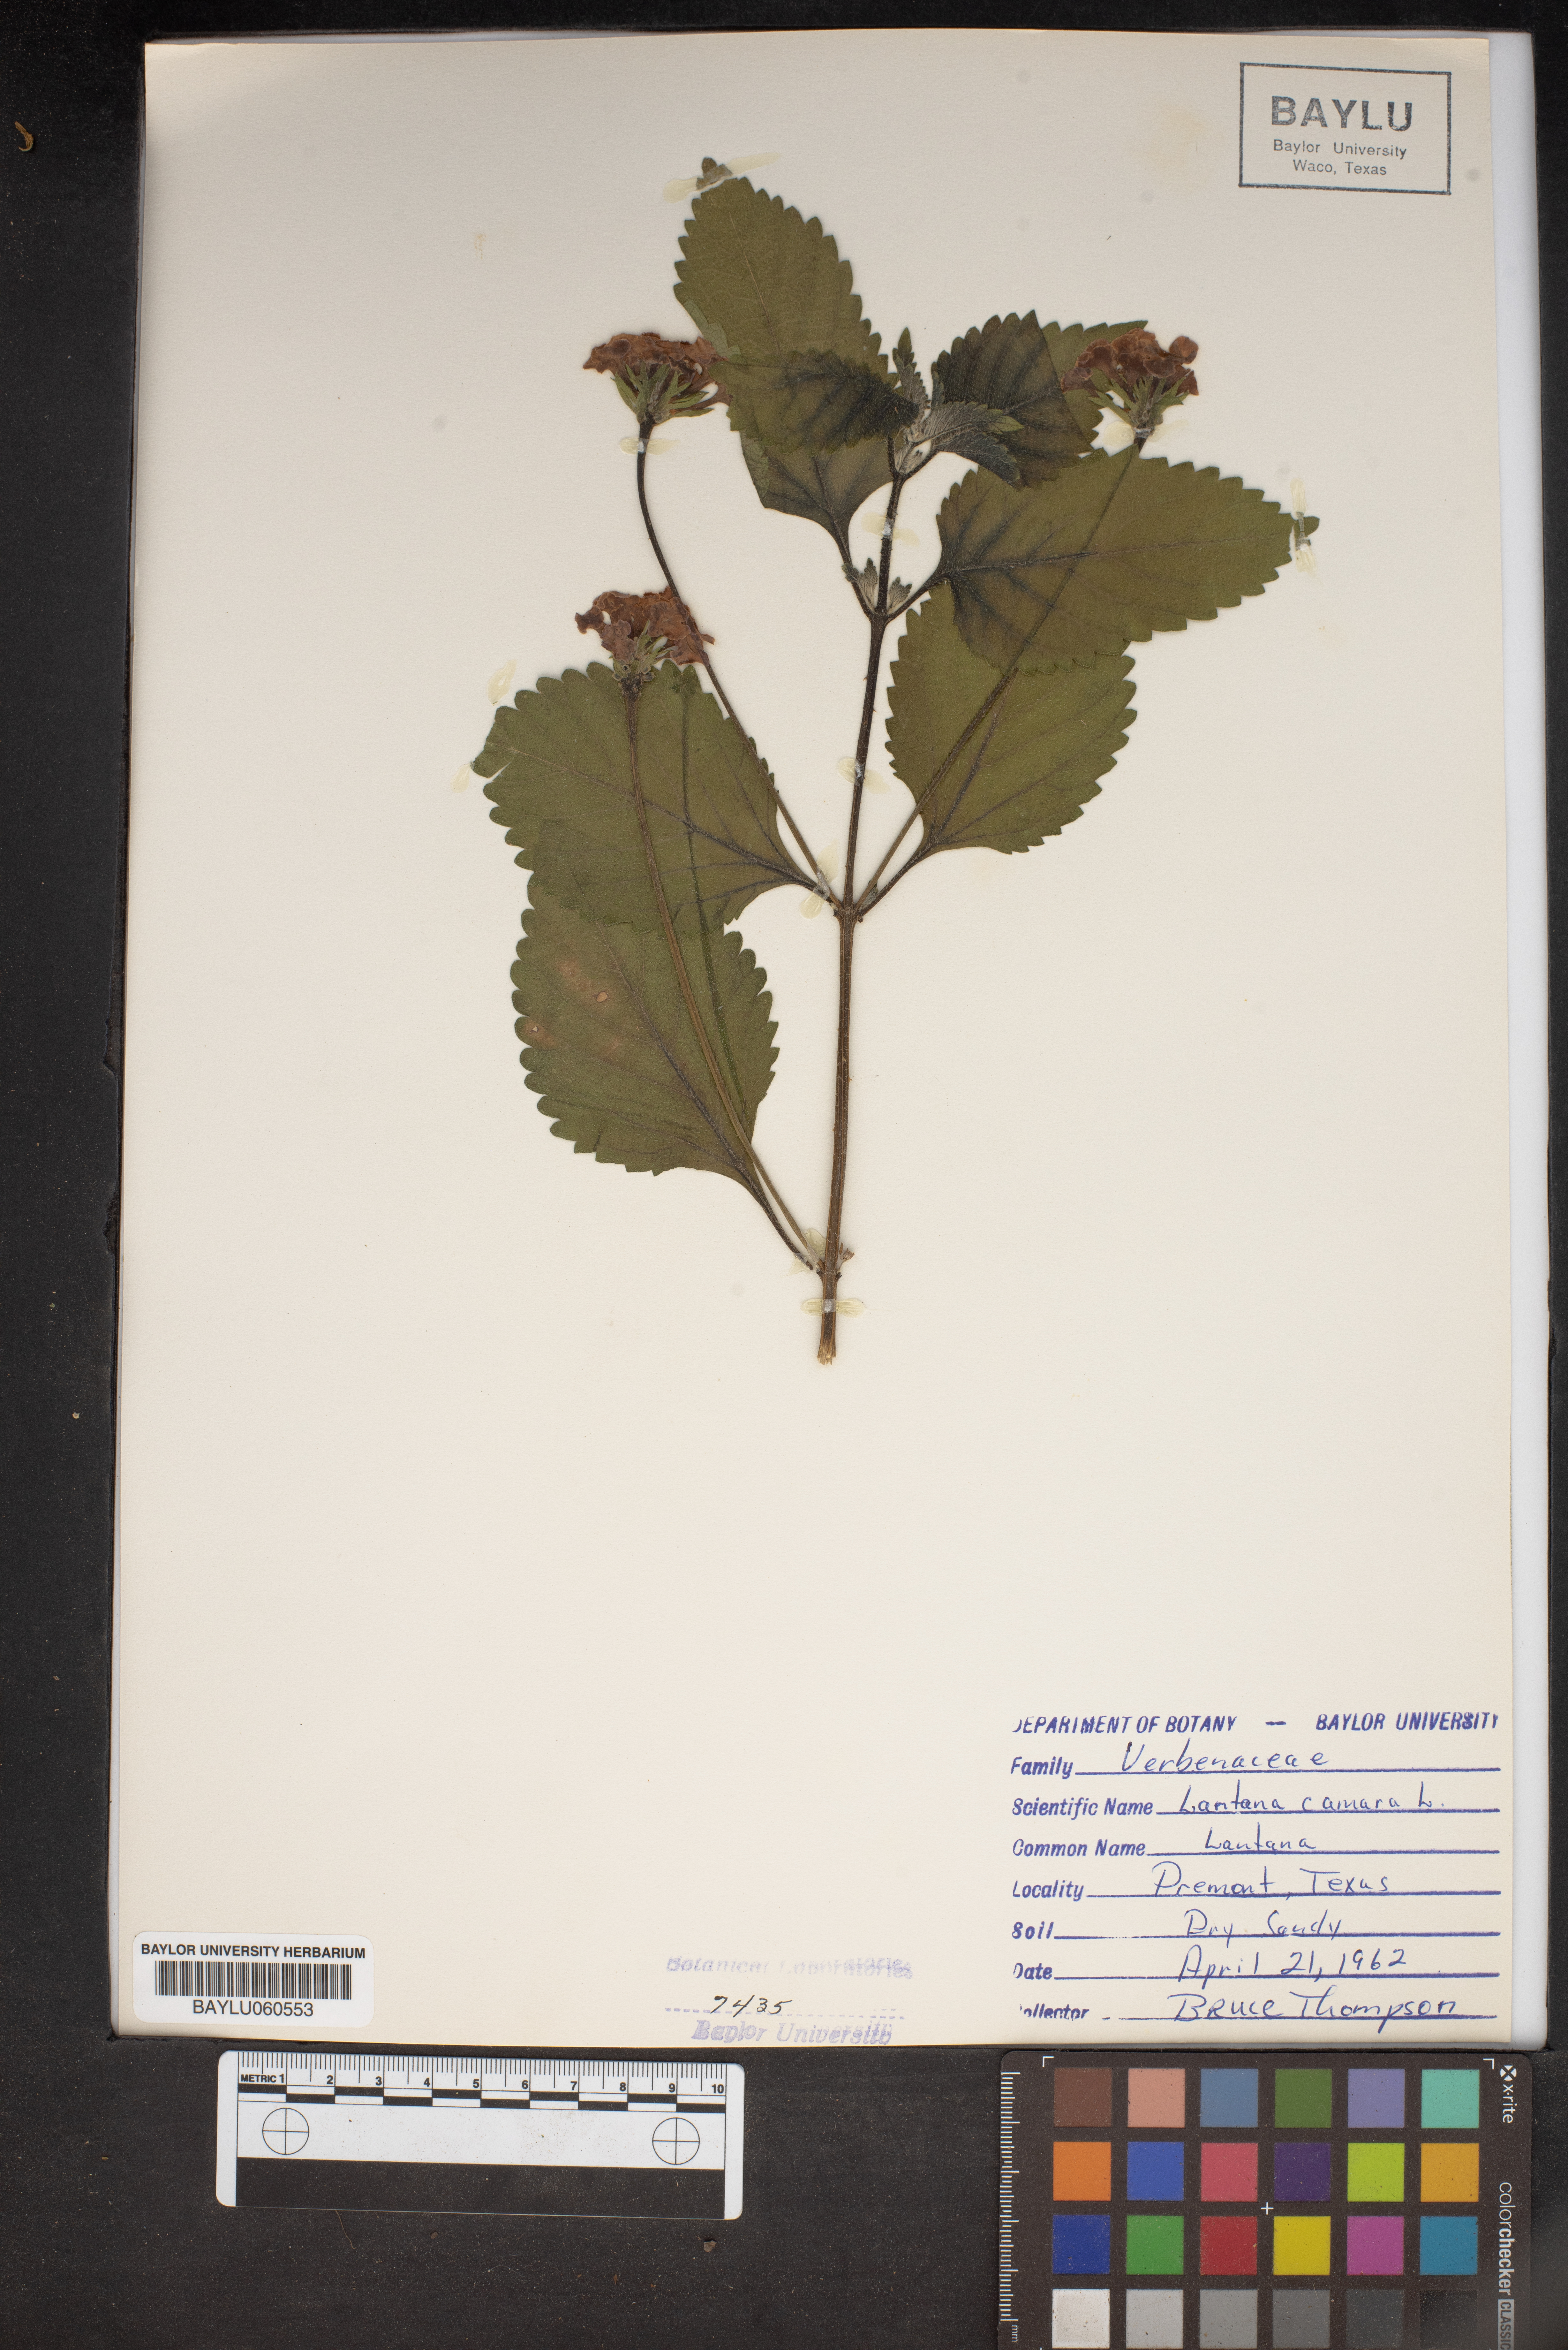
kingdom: Plantae
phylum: Tracheophyta
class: Magnoliopsida
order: Lamiales
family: Verbenaceae
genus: Lantana
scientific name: Lantana camara
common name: Lantana
